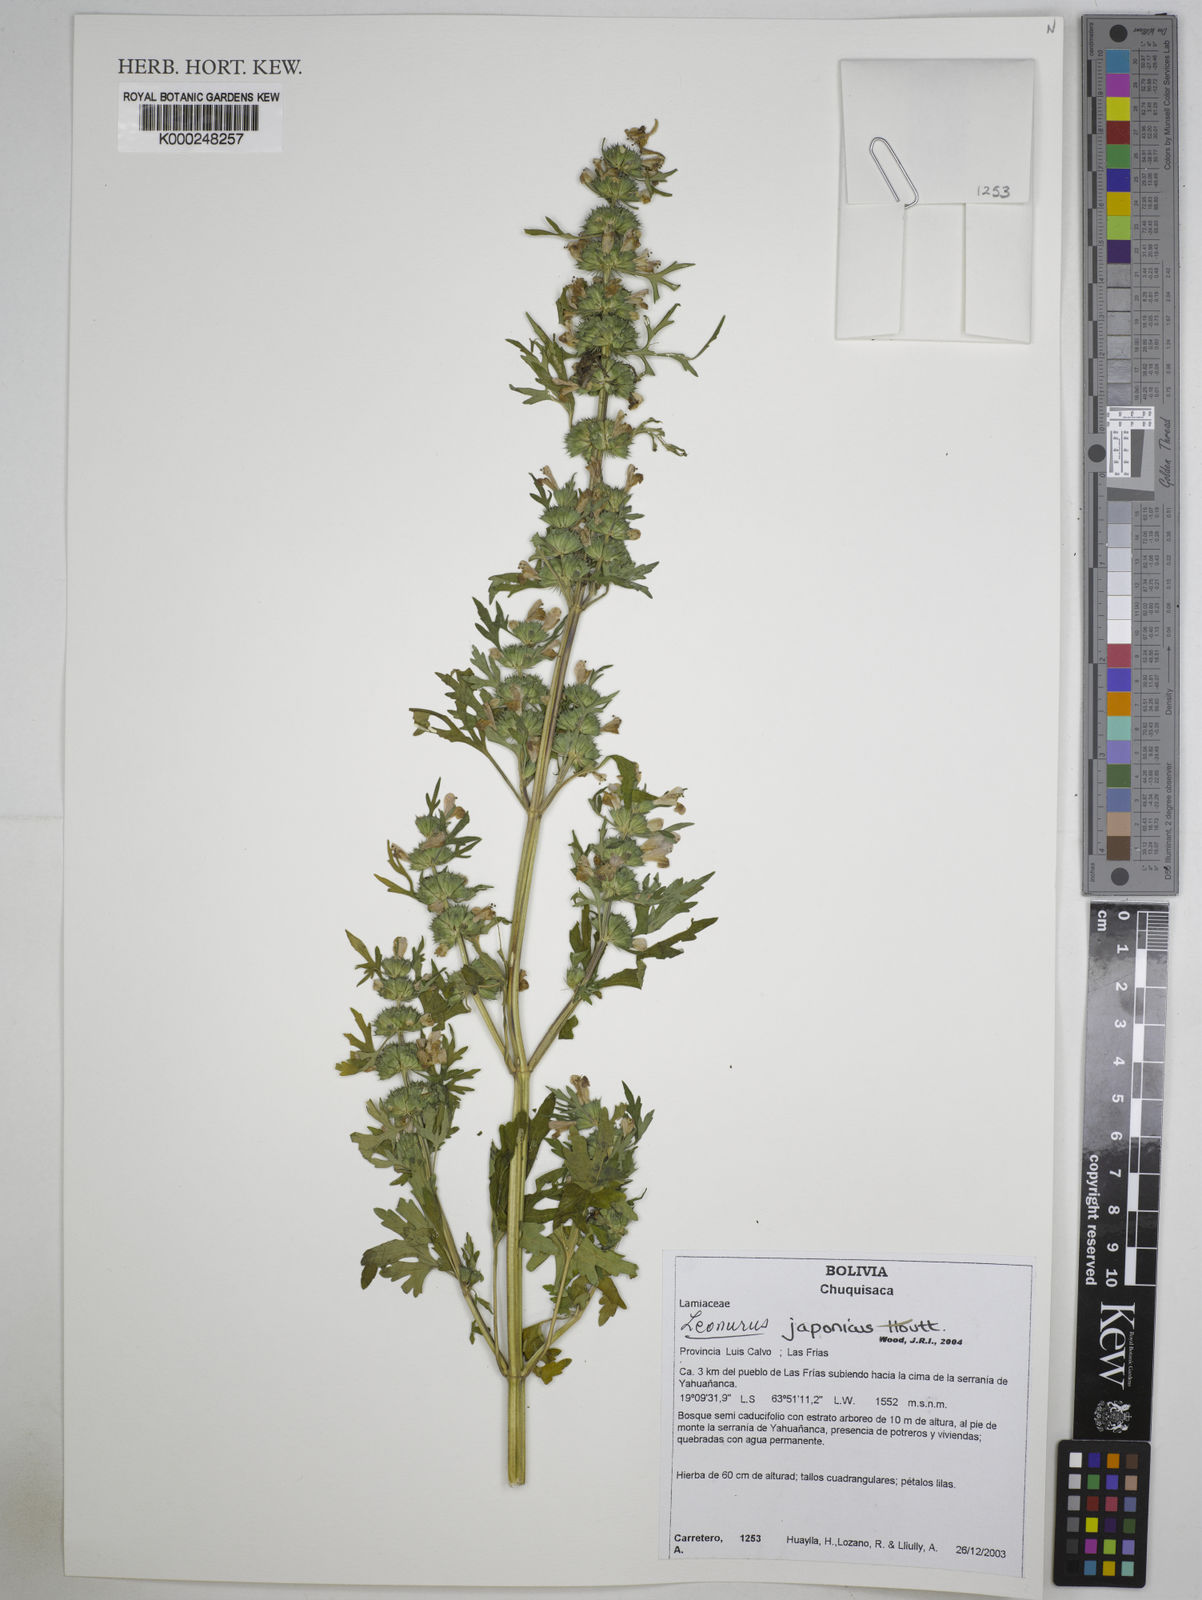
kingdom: Plantae
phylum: Tracheophyta
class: Magnoliopsida
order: Lamiales
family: Lamiaceae
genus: Leonurus
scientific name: Leonurus japonicus
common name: Honeyweed
